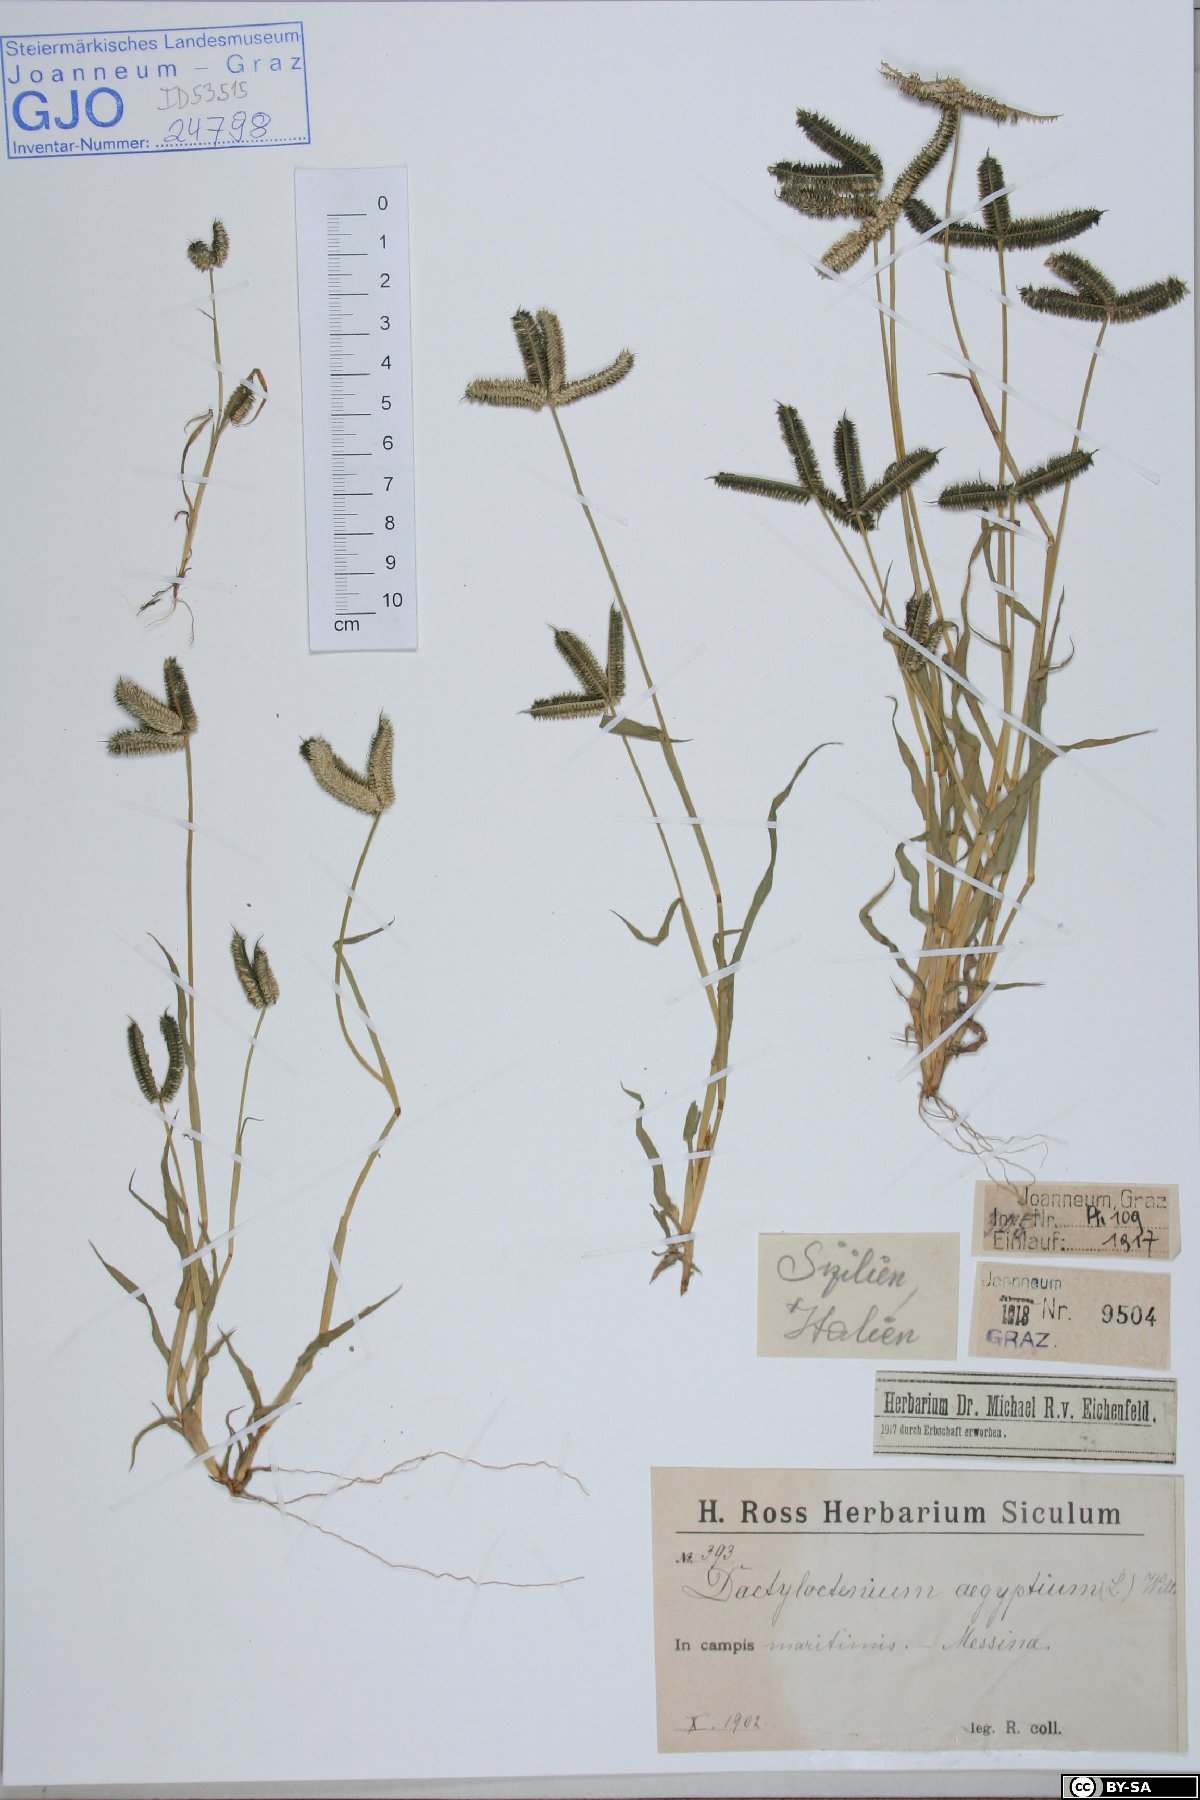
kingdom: Plantae
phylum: Tracheophyta
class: Liliopsida
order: Poales
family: Poaceae
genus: Dactyloctenium
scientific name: Dactyloctenium aegyptium
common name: Egyptian grass
